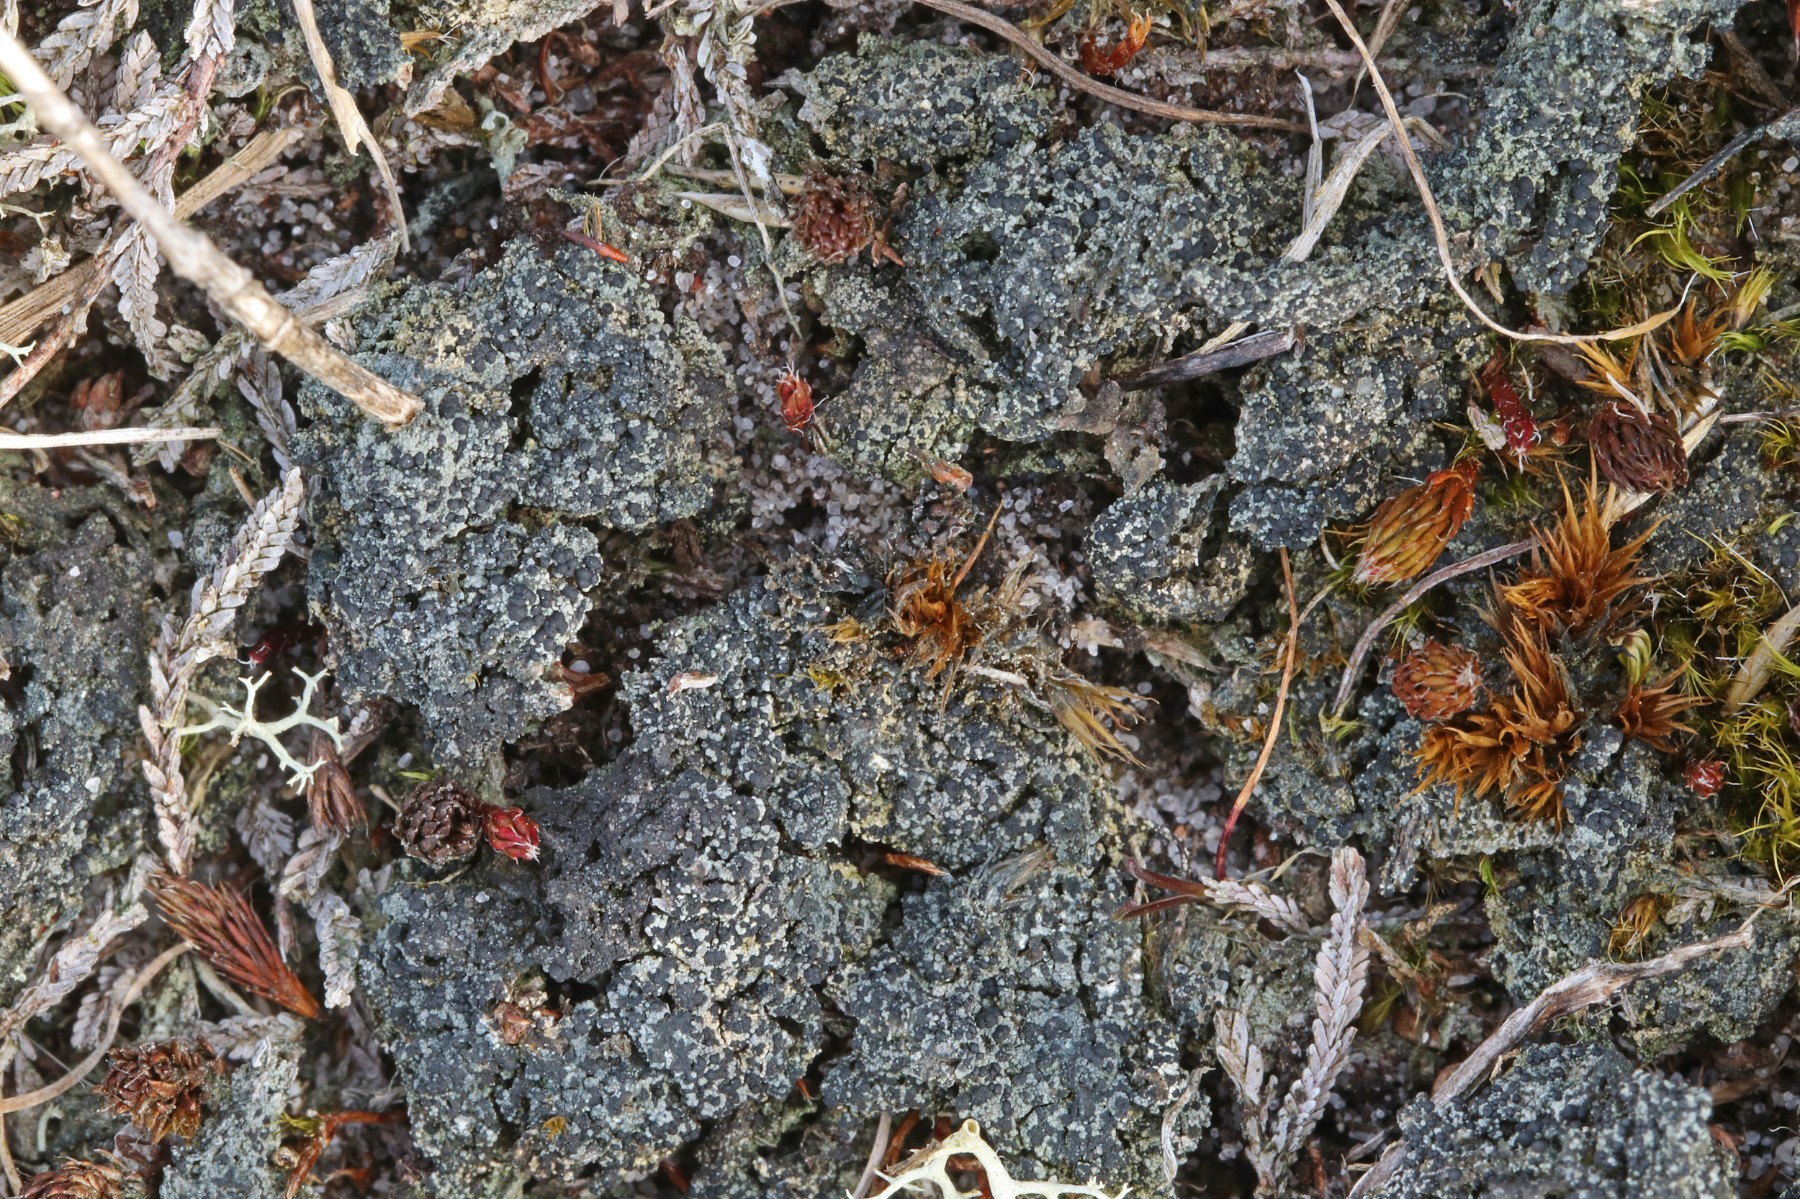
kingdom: Fungi
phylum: Ascomycota
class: Lecanoromycetes
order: Lecanorales
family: Byssolomataceae
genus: Micarea
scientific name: Micarea lignaria
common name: tørve-knaplav
